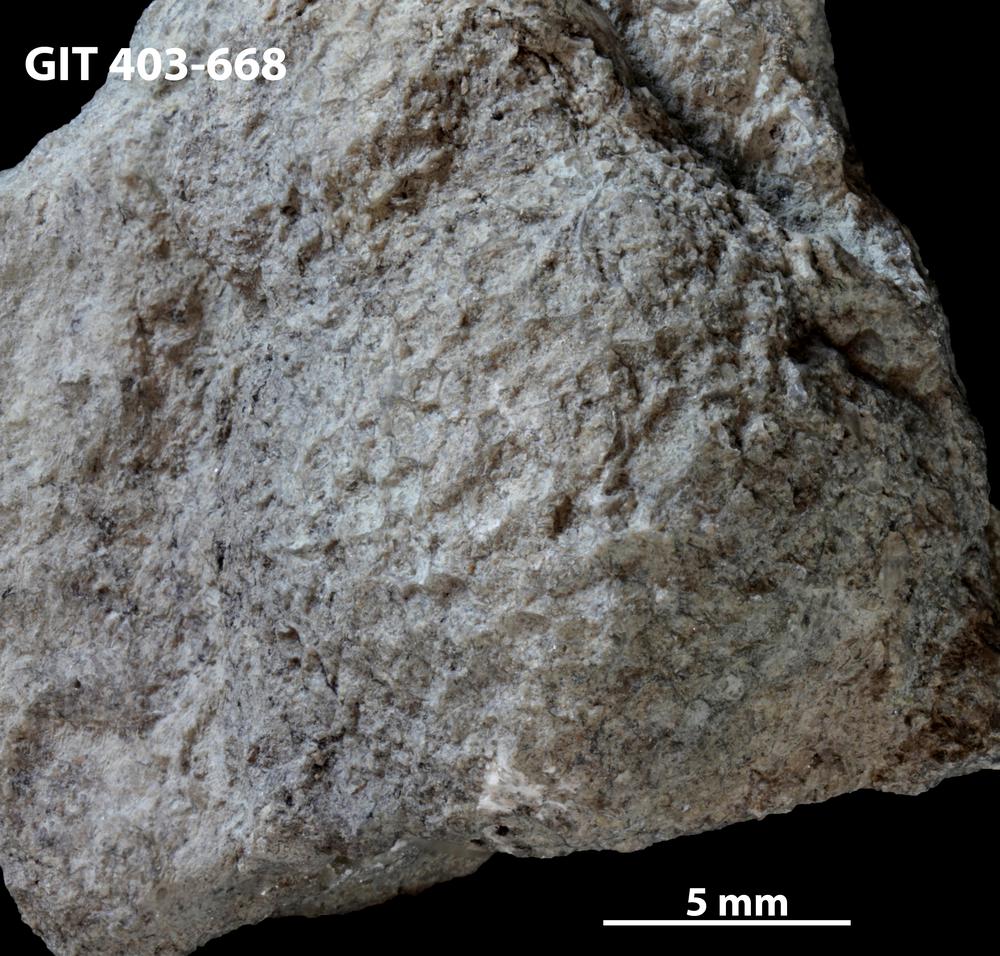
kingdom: Animalia
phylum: Cnidaria
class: Anthozoa
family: Favositidae
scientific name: Favositidae
